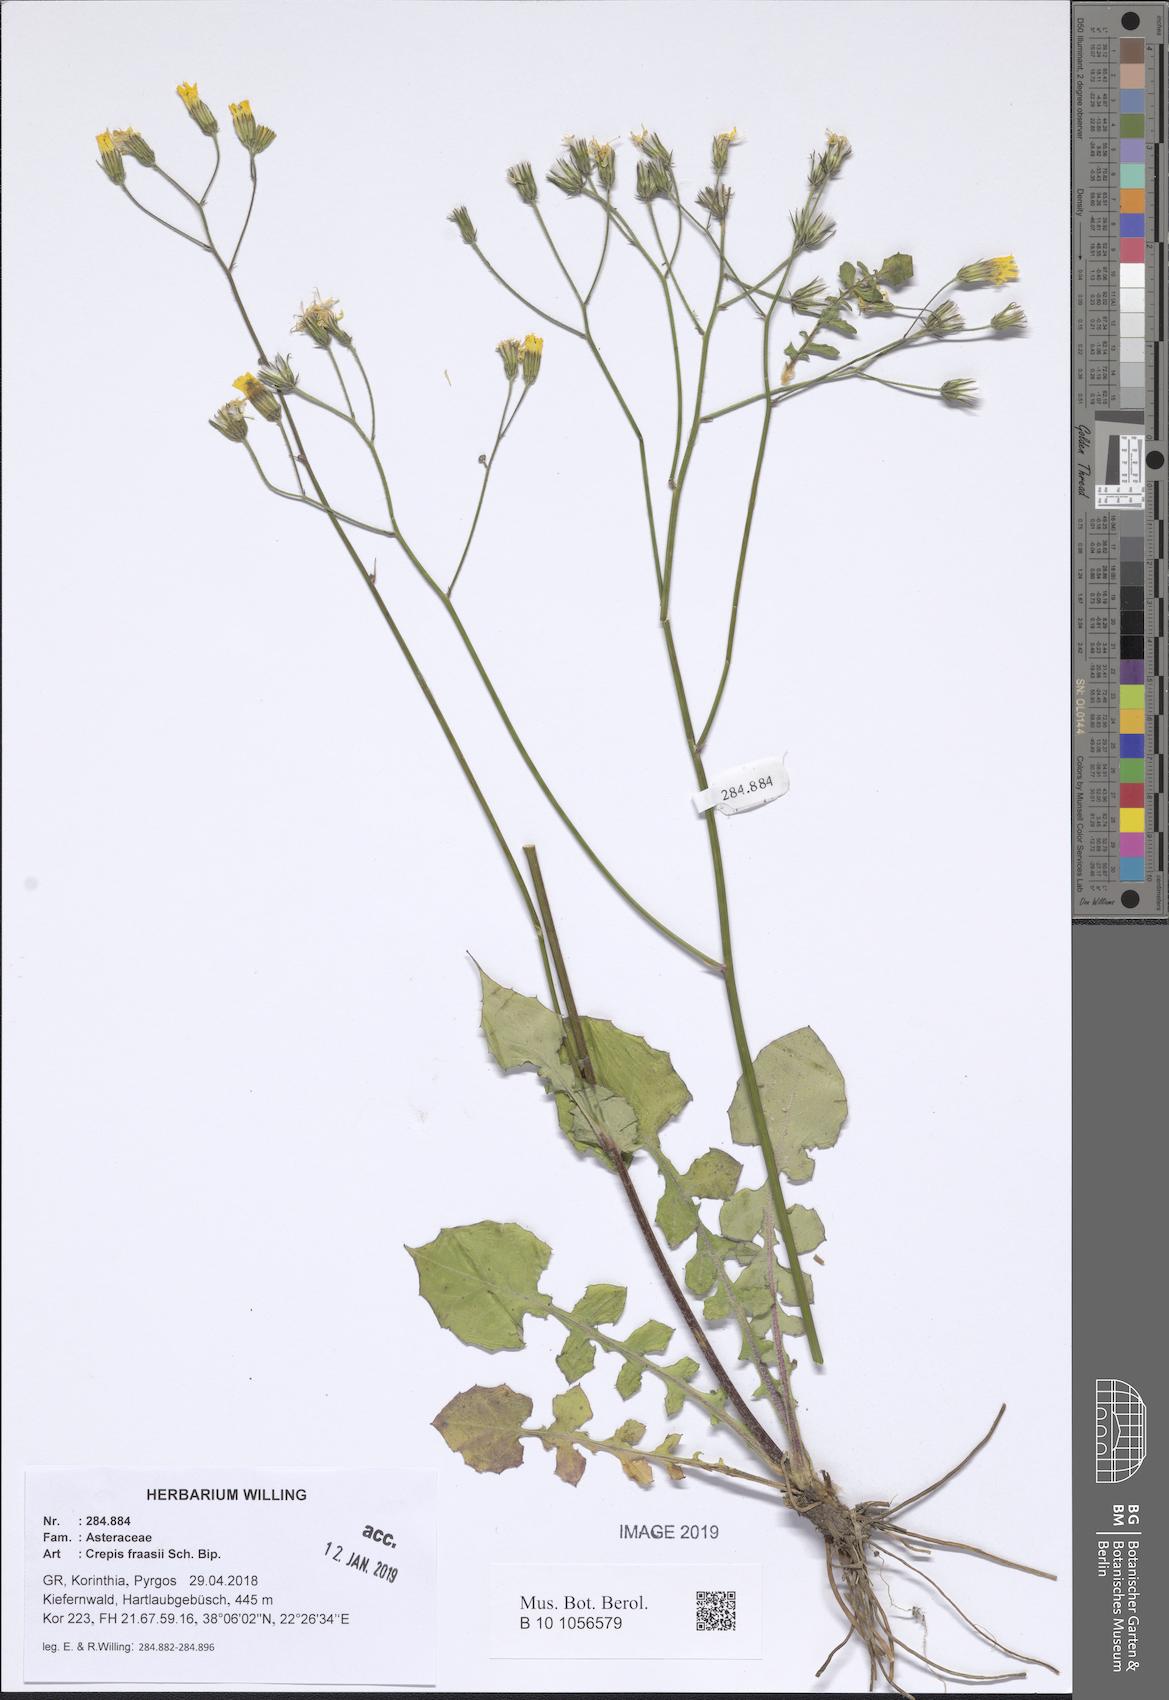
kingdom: Plantae
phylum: Tracheophyta
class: Magnoliopsida
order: Asterales
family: Asteraceae
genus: Crepis
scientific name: Crepis fraasii
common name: Hawk's-beard
